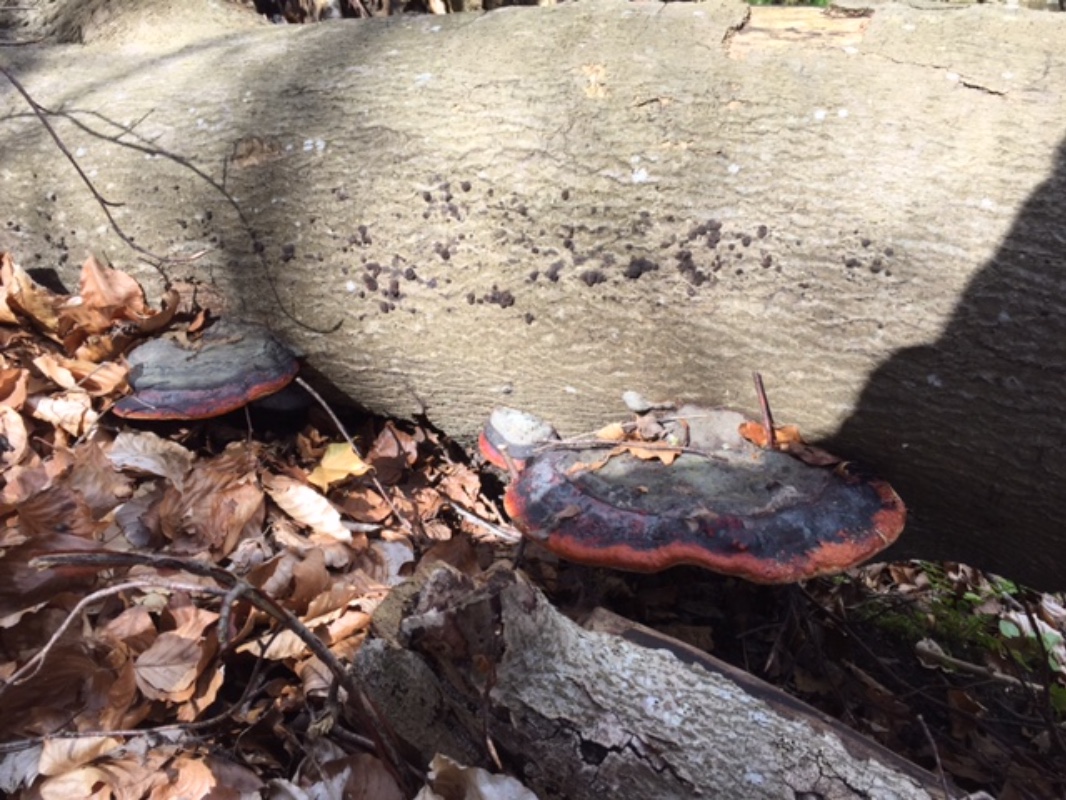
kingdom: Fungi
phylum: Basidiomycota
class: Agaricomycetes
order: Polyporales
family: Fomitopsidaceae
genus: Fomitopsis
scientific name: Fomitopsis pinicola
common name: randbæltet hovporesvamp
